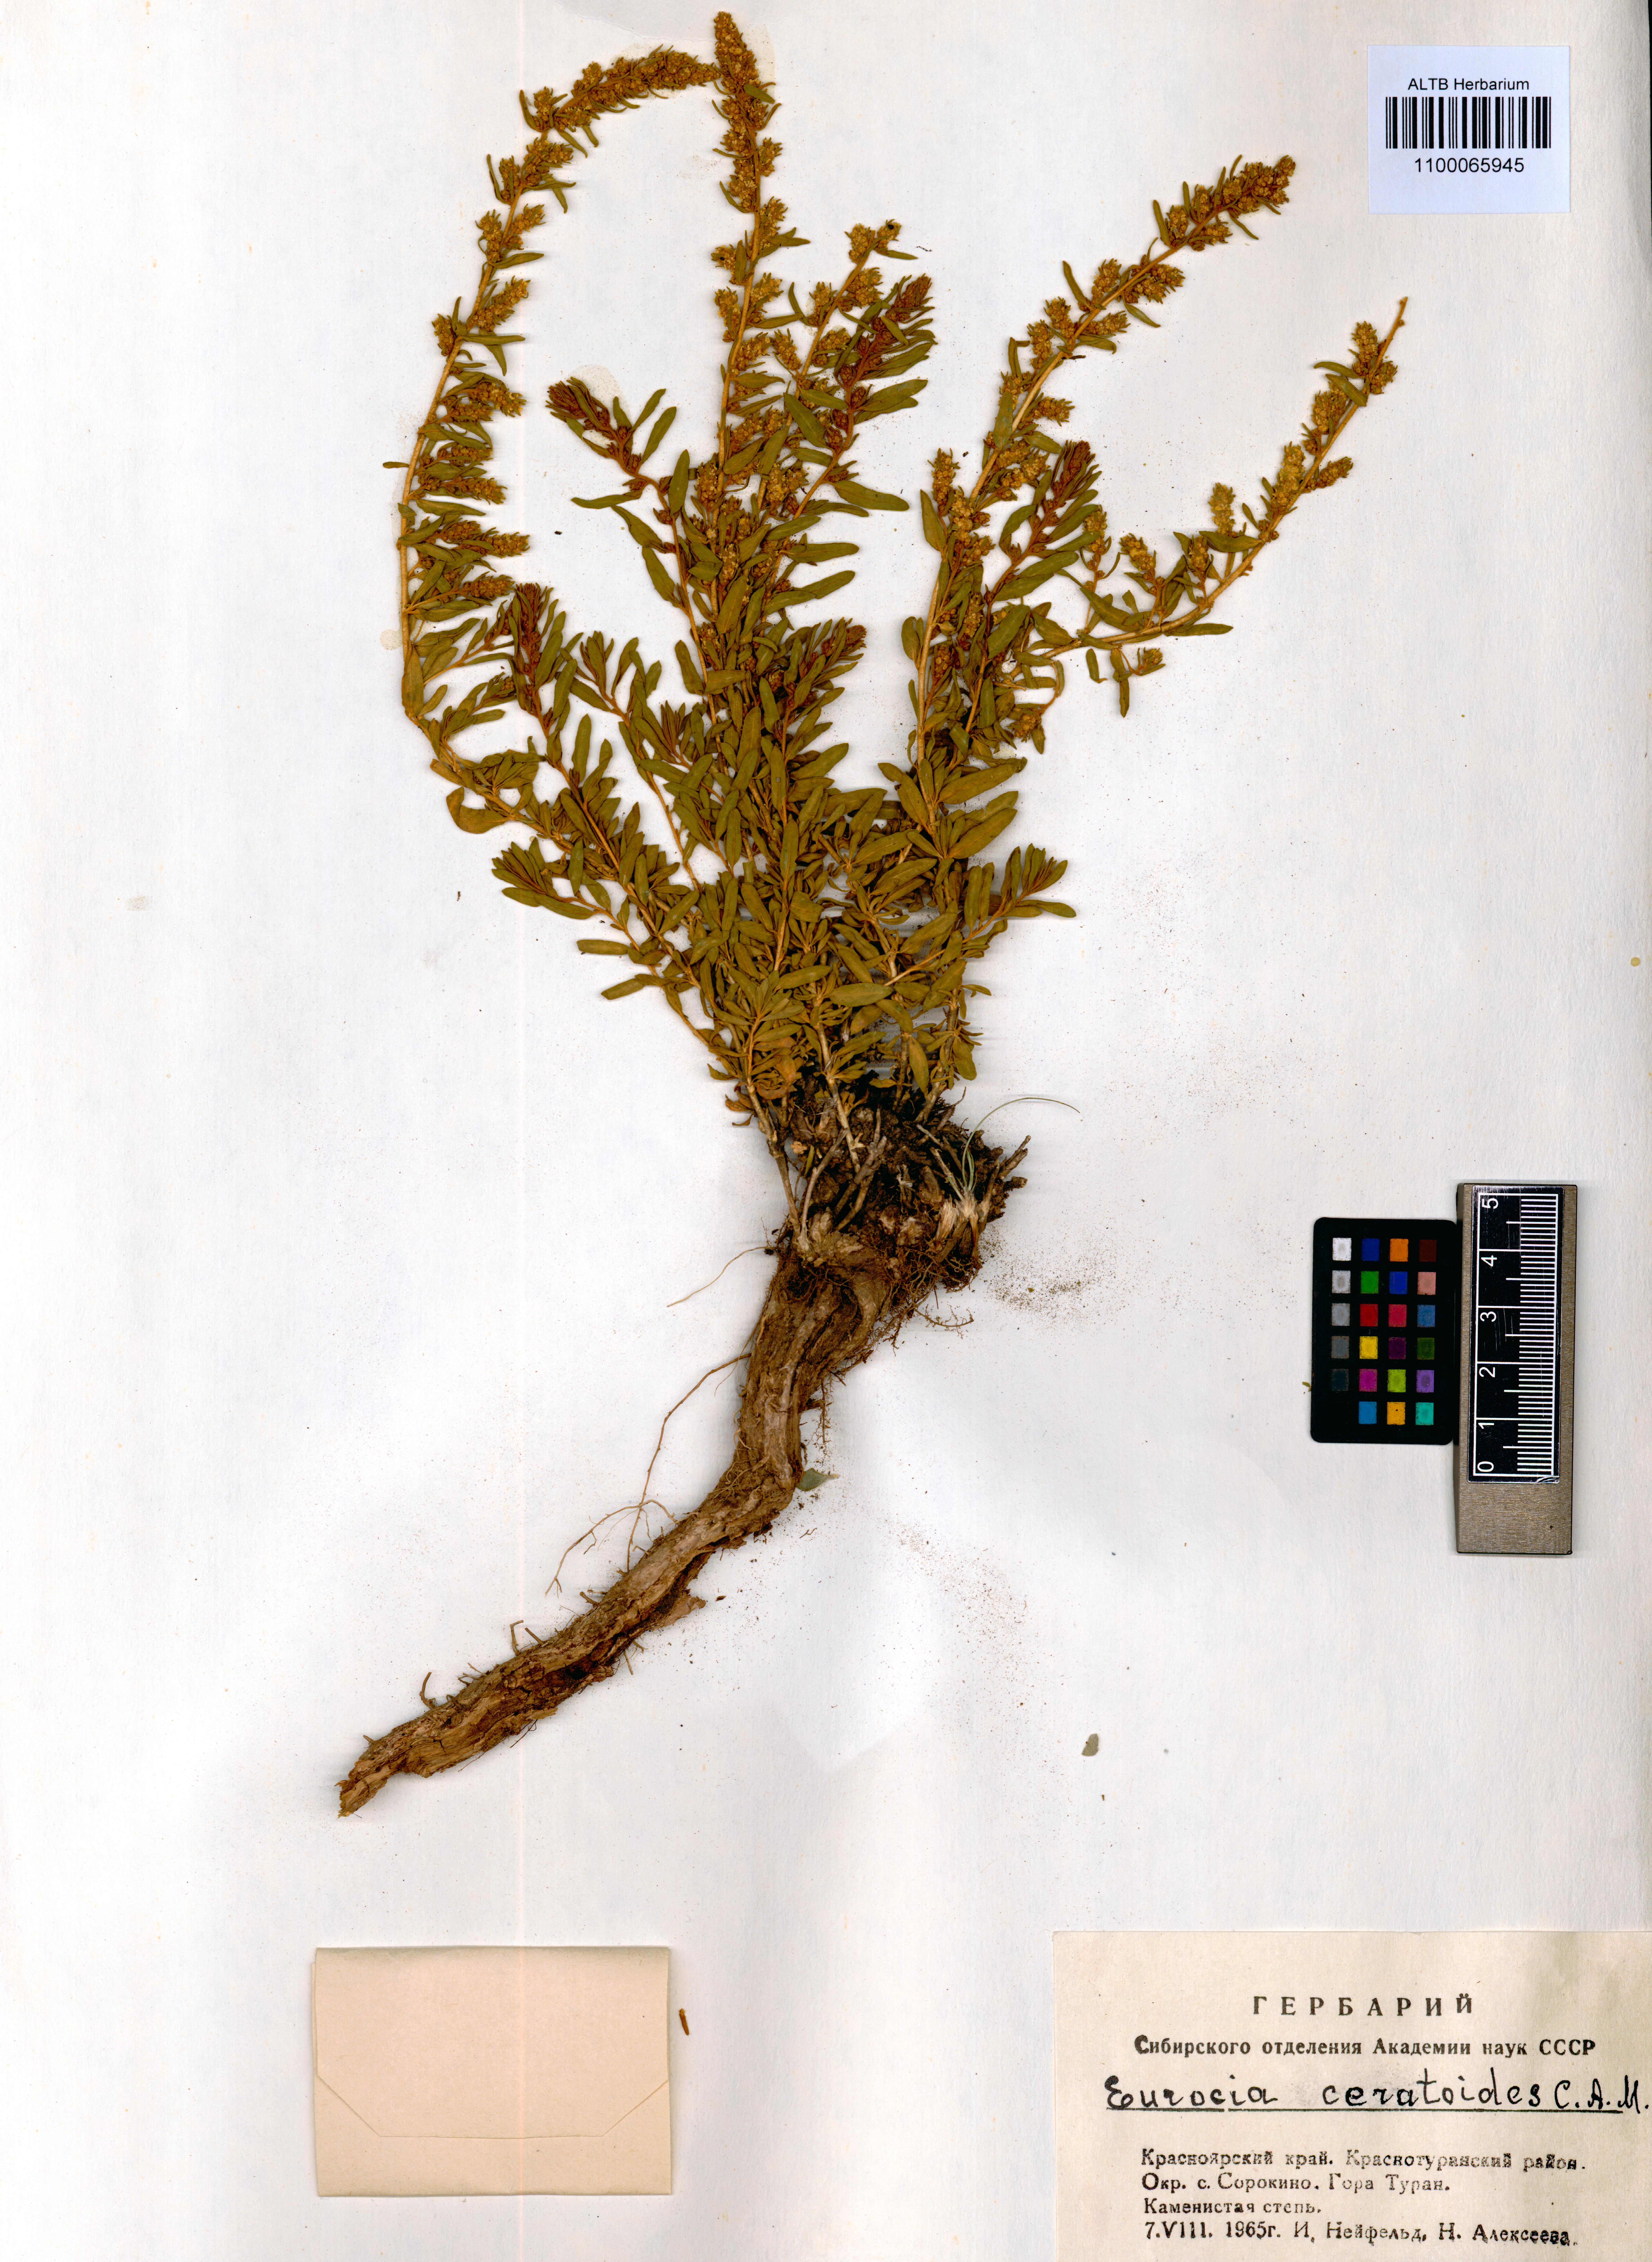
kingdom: Plantae
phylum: Tracheophyta
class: Magnoliopsida
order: Caryophyllales
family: Amaranthaceae
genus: Krascheninnikovia
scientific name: Krascheninnikovia ceratoides
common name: Pamirian winterfat
